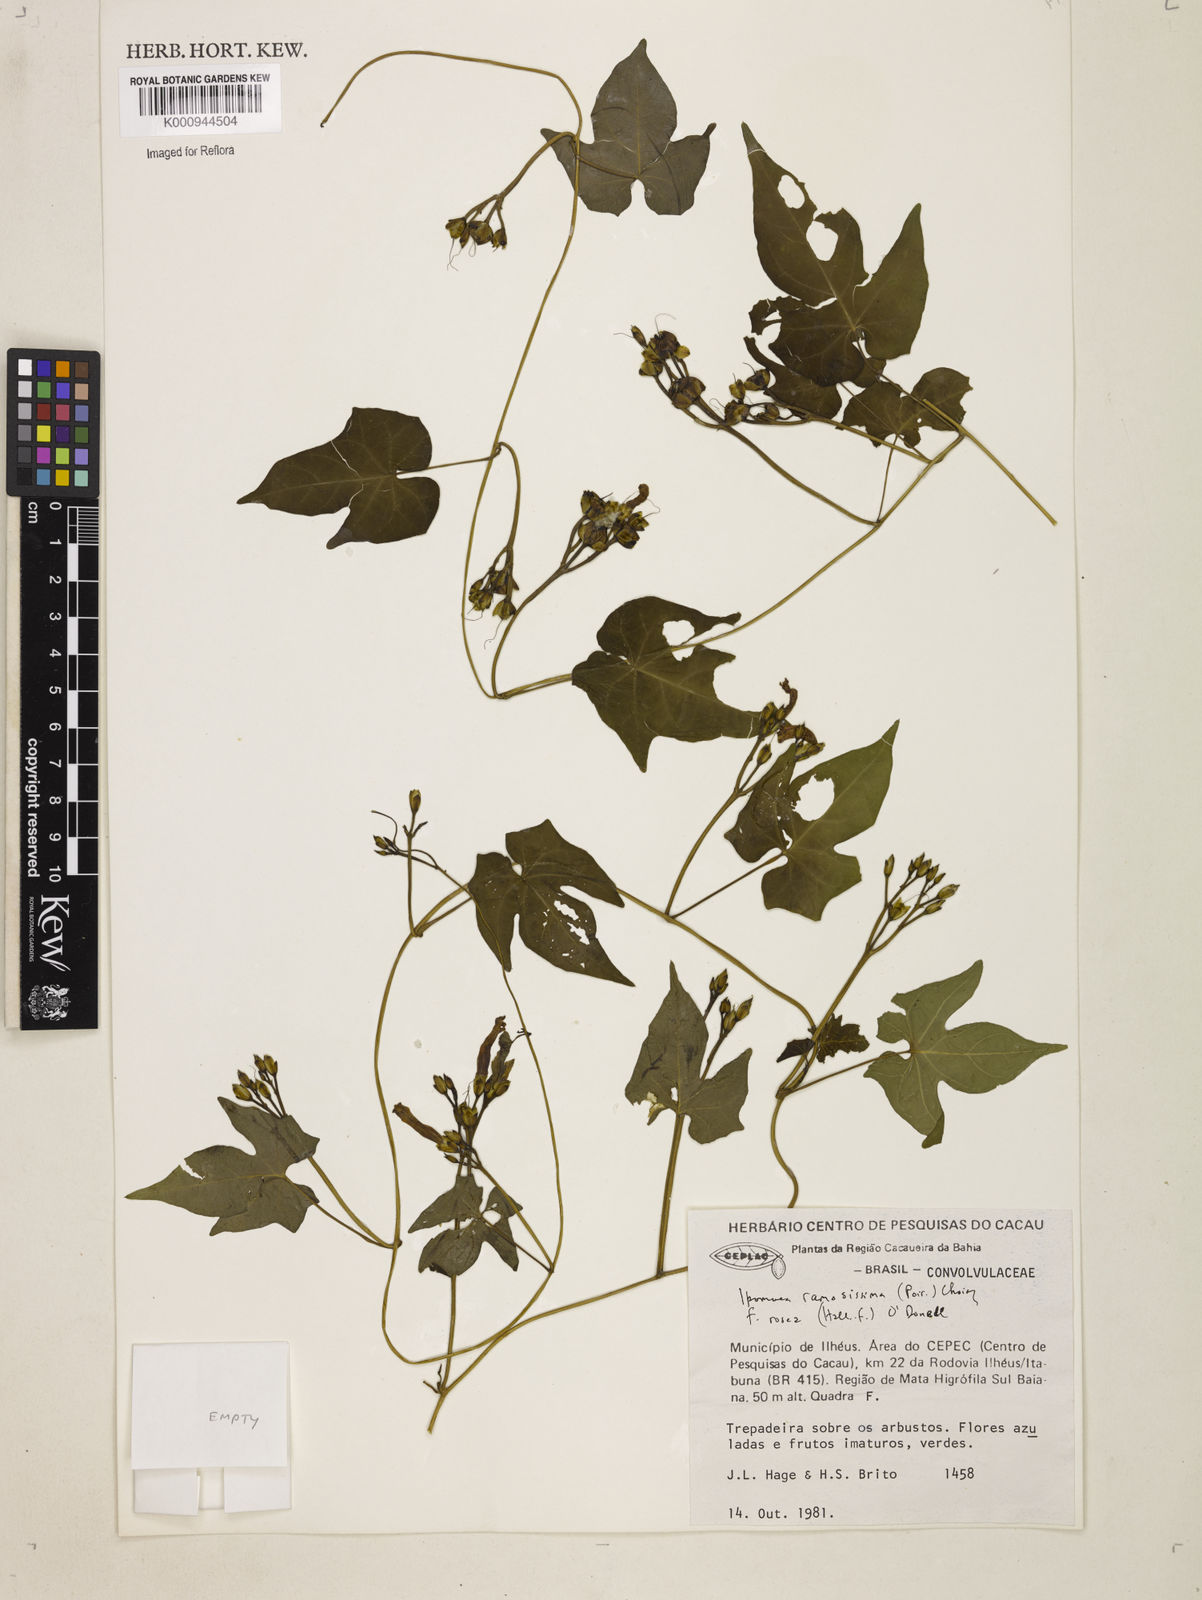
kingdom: Plantae
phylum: Tracheophyta
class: Magnoliopsida
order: Solanales
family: Convolvulaceae
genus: Ipomoea
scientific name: Ipomoea ramosissima
